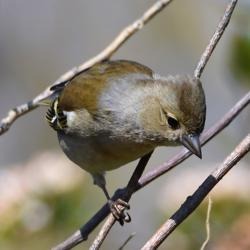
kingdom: Animalia
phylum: Chordata
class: Aves
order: Passeriformes
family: Fringillidae
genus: Fringilla
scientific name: Fringilla coelebs
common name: Bogfinke
